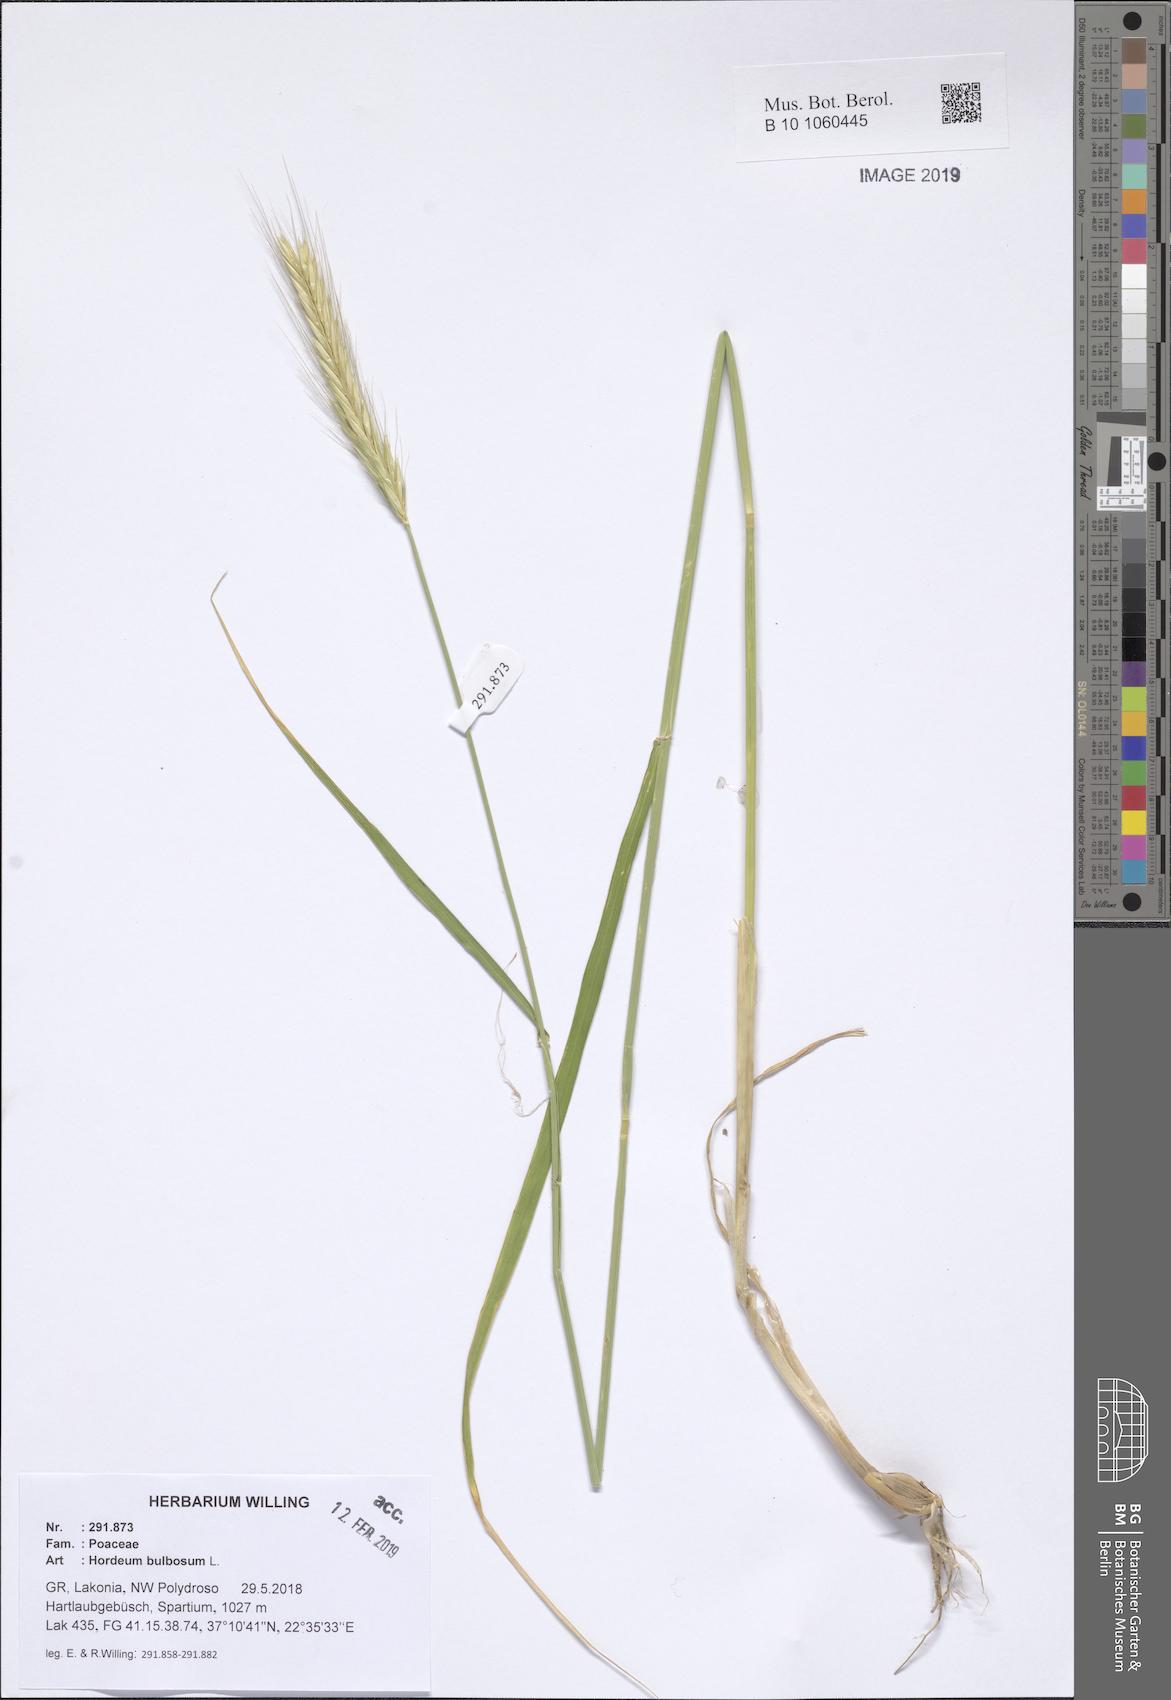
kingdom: Plantae
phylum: Tracheophyta
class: Liliopsida
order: Poales
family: Poaceae
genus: Hordeum
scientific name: Hordeum bulbosum
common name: Bulbous barley
